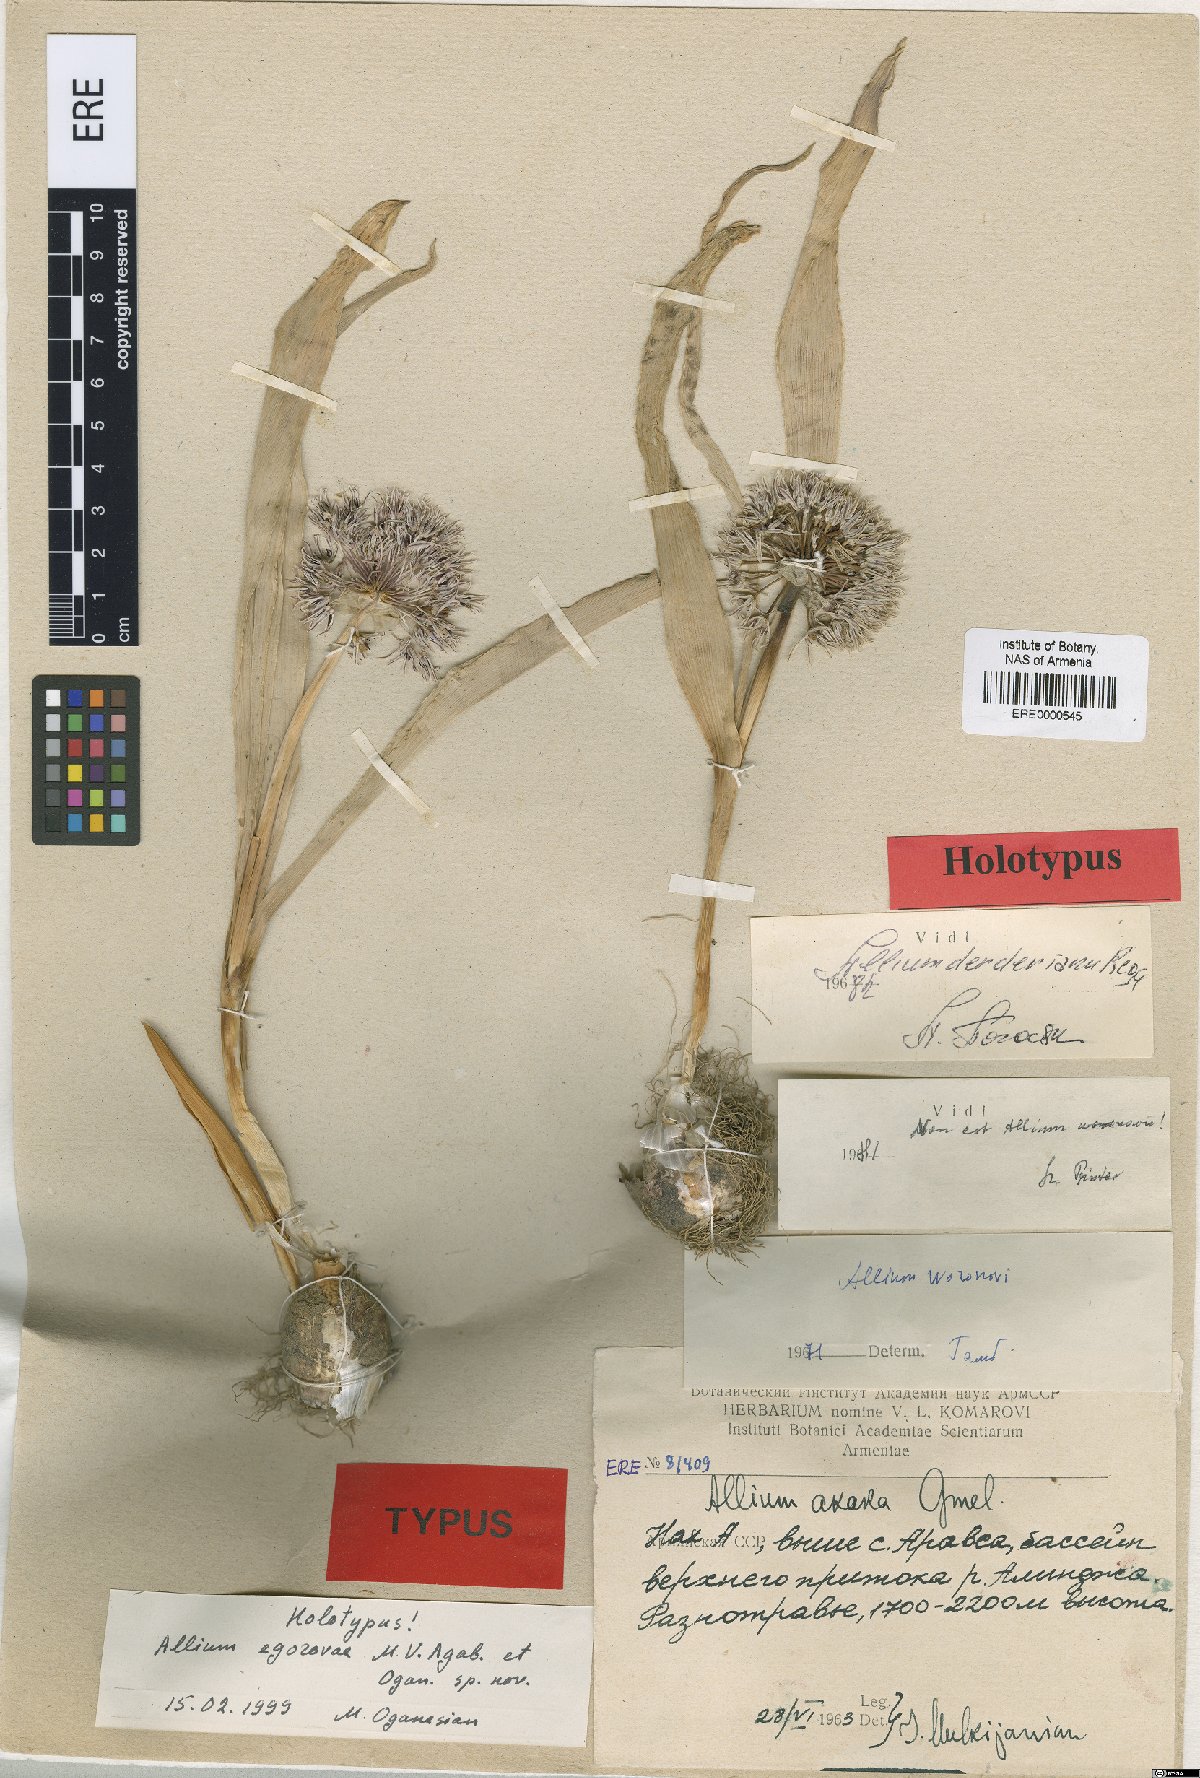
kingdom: Plantae
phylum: Tracheophyta
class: Liliopsida
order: Asparagales
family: Amaryllidaceae
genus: Allium
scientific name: Allium egorovae
